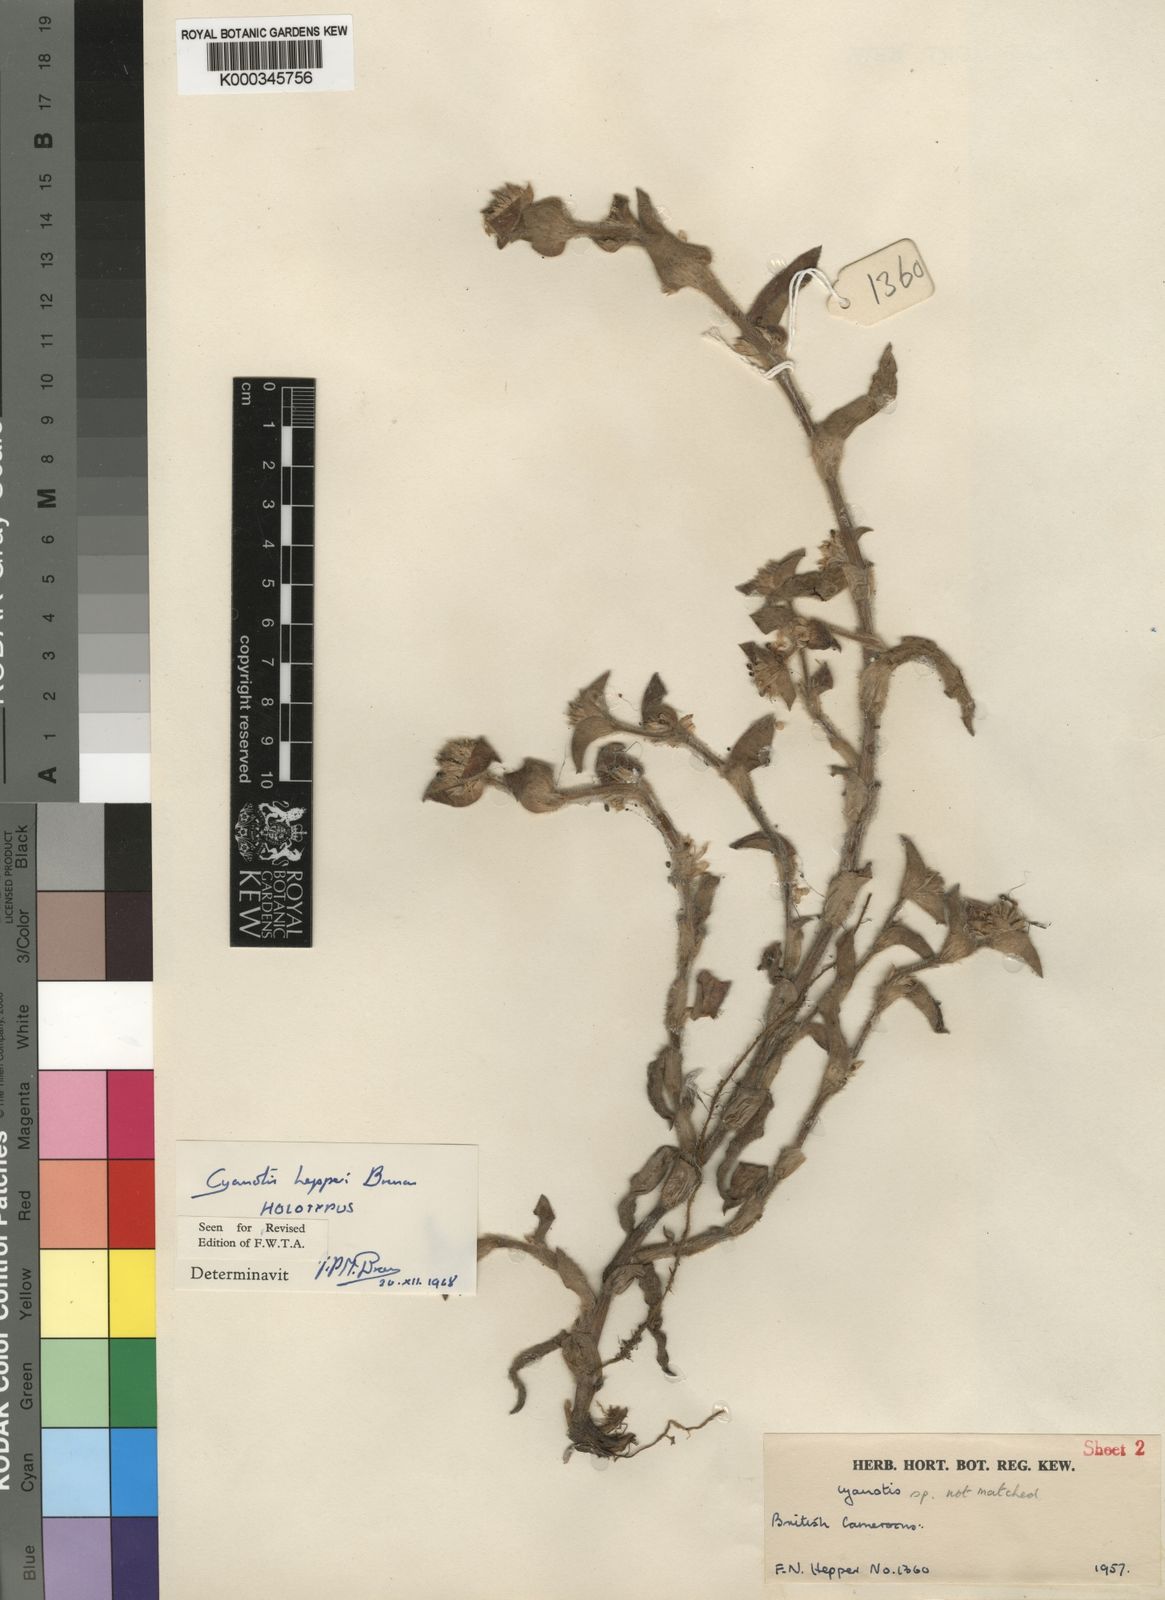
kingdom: Plantae
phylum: Tracheophyta
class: Liliopsida
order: Commelinales
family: Commelinaceae
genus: Cyanotis
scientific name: Cyanotis hepperi
